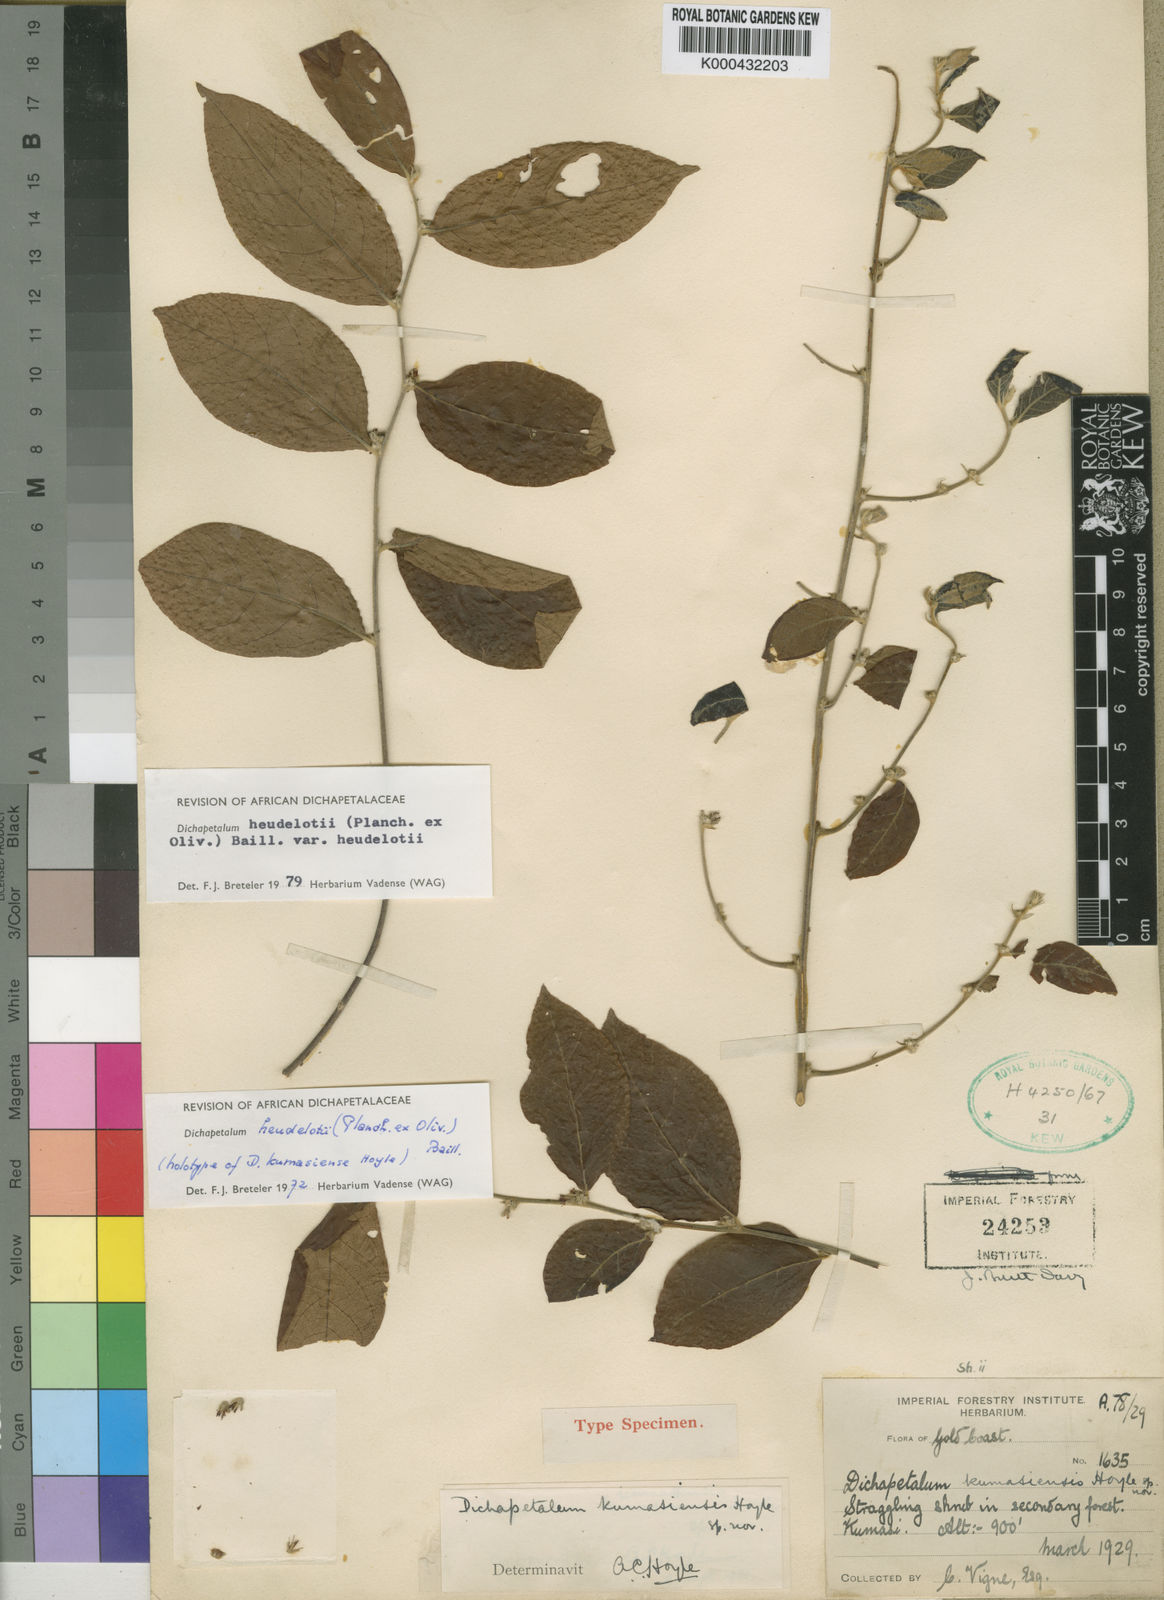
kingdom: Plantae
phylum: Tracheophyta
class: Magnoliopsida
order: Malpighiales
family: Dichapetalaceae
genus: Dichapetalum
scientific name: Dichapetalum heudelotii
